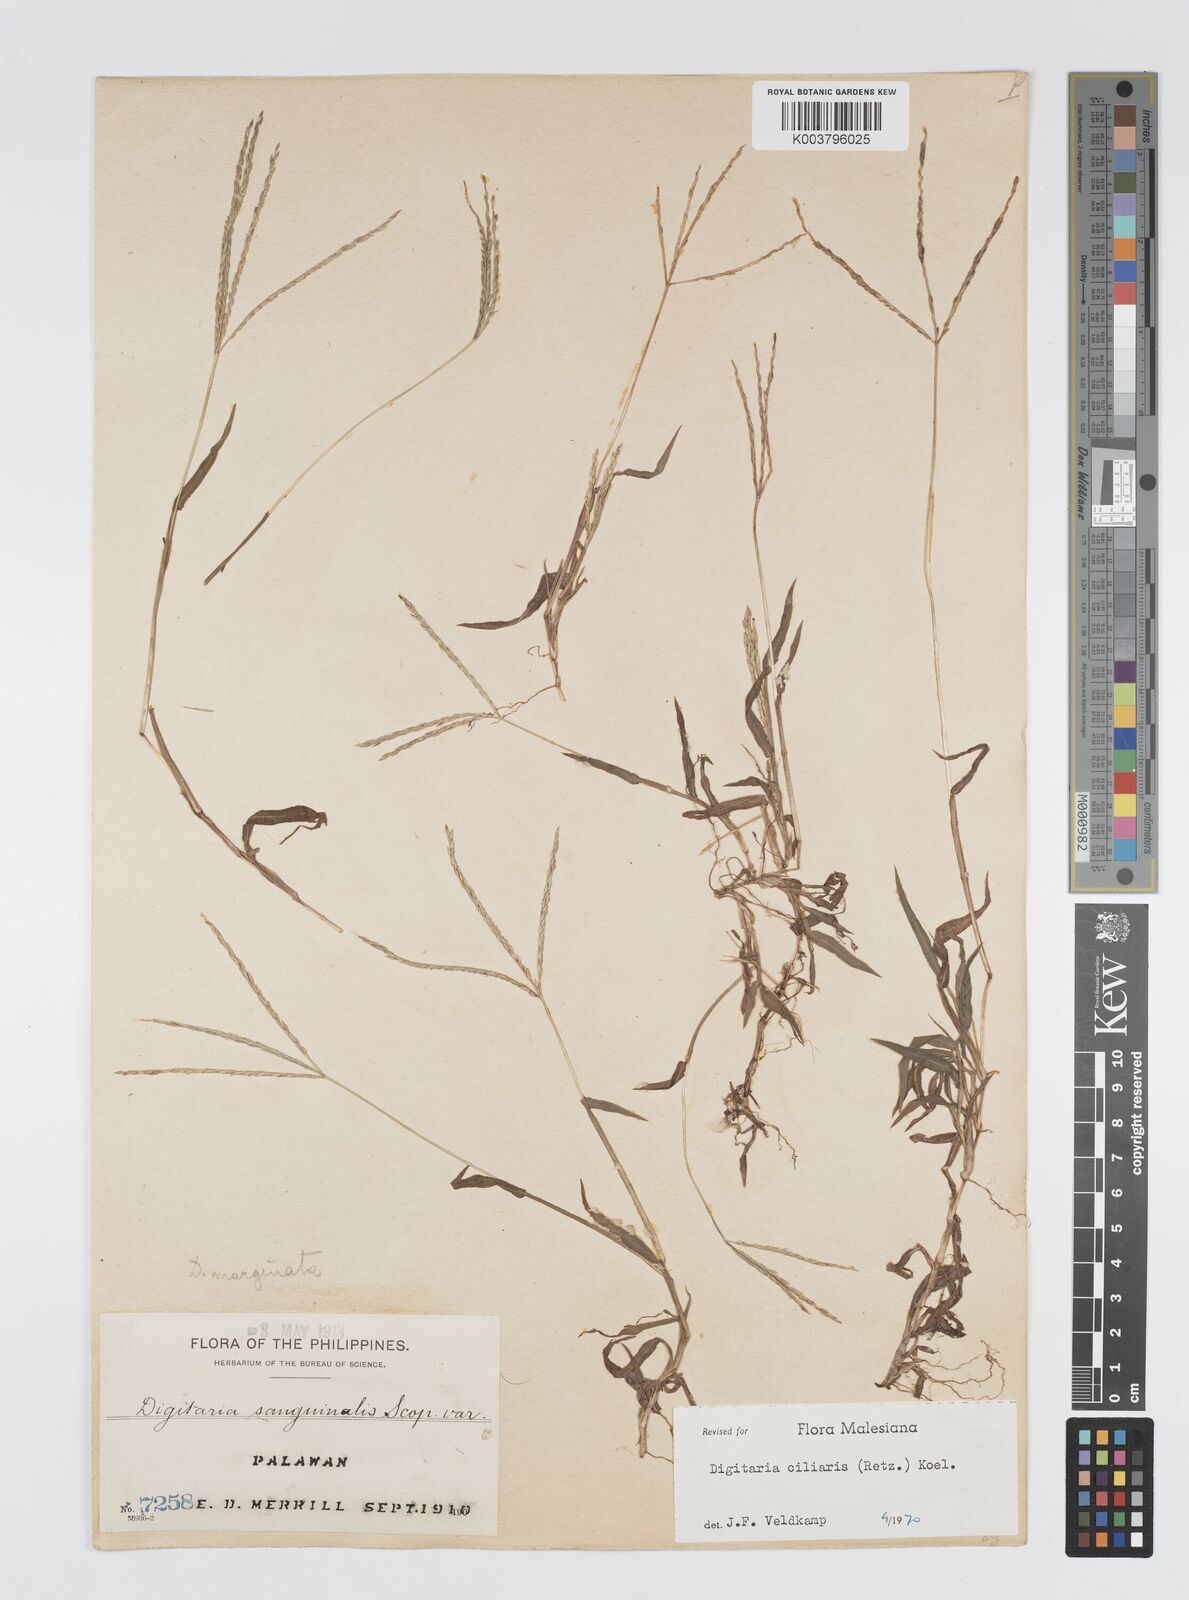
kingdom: Plantae
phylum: Tracheophyta
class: Liliopsida
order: Poales
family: Poaceae
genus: Digitaria
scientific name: Digitaria ciliaris
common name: Tropical finger-grass
